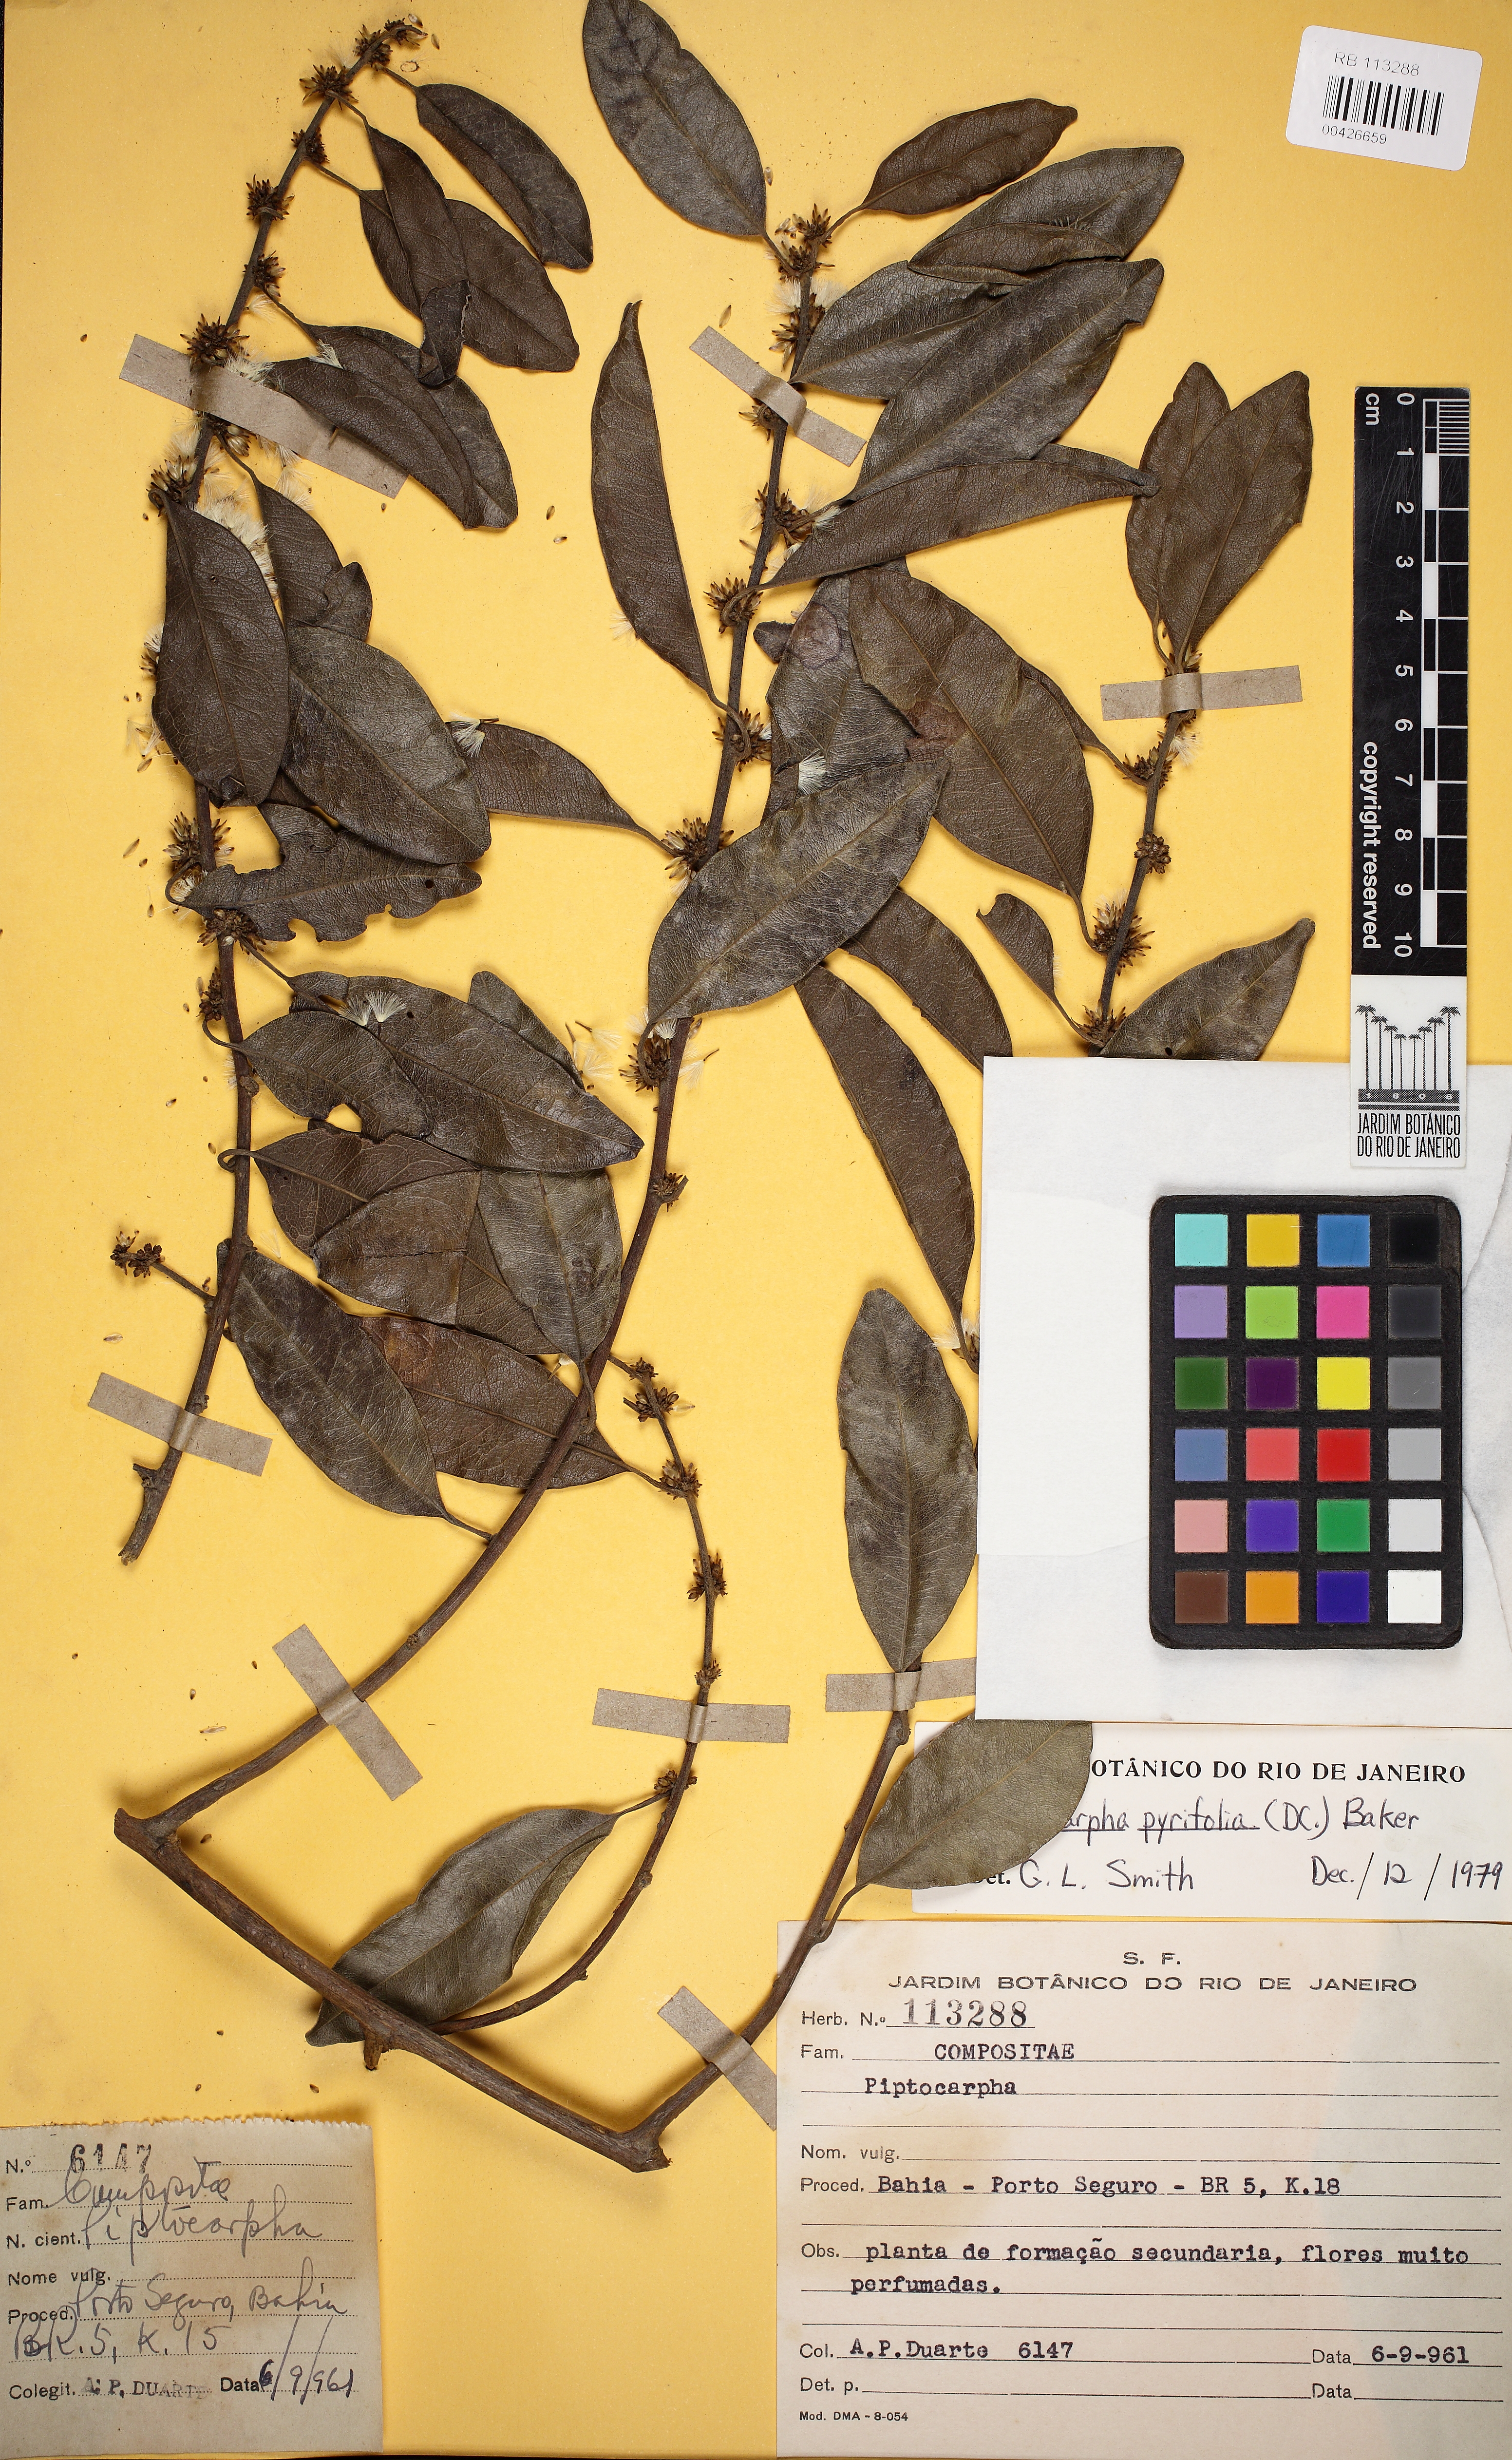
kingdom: Plantae
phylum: Tracheophyta
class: Magnoliopsida
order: Asterales
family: Asteraceae
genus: Piptocarpha
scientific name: Piptocarpha pyrifolia
